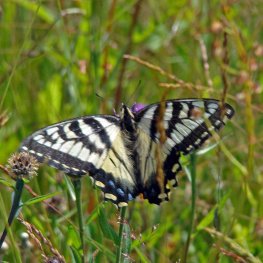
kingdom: Animalia
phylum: Arthropoda
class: Insecta
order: Lepidoptera
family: Papilionidae
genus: Pterourus
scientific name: Pterourus canadensis
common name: Canadian Tiger Swallowtail
